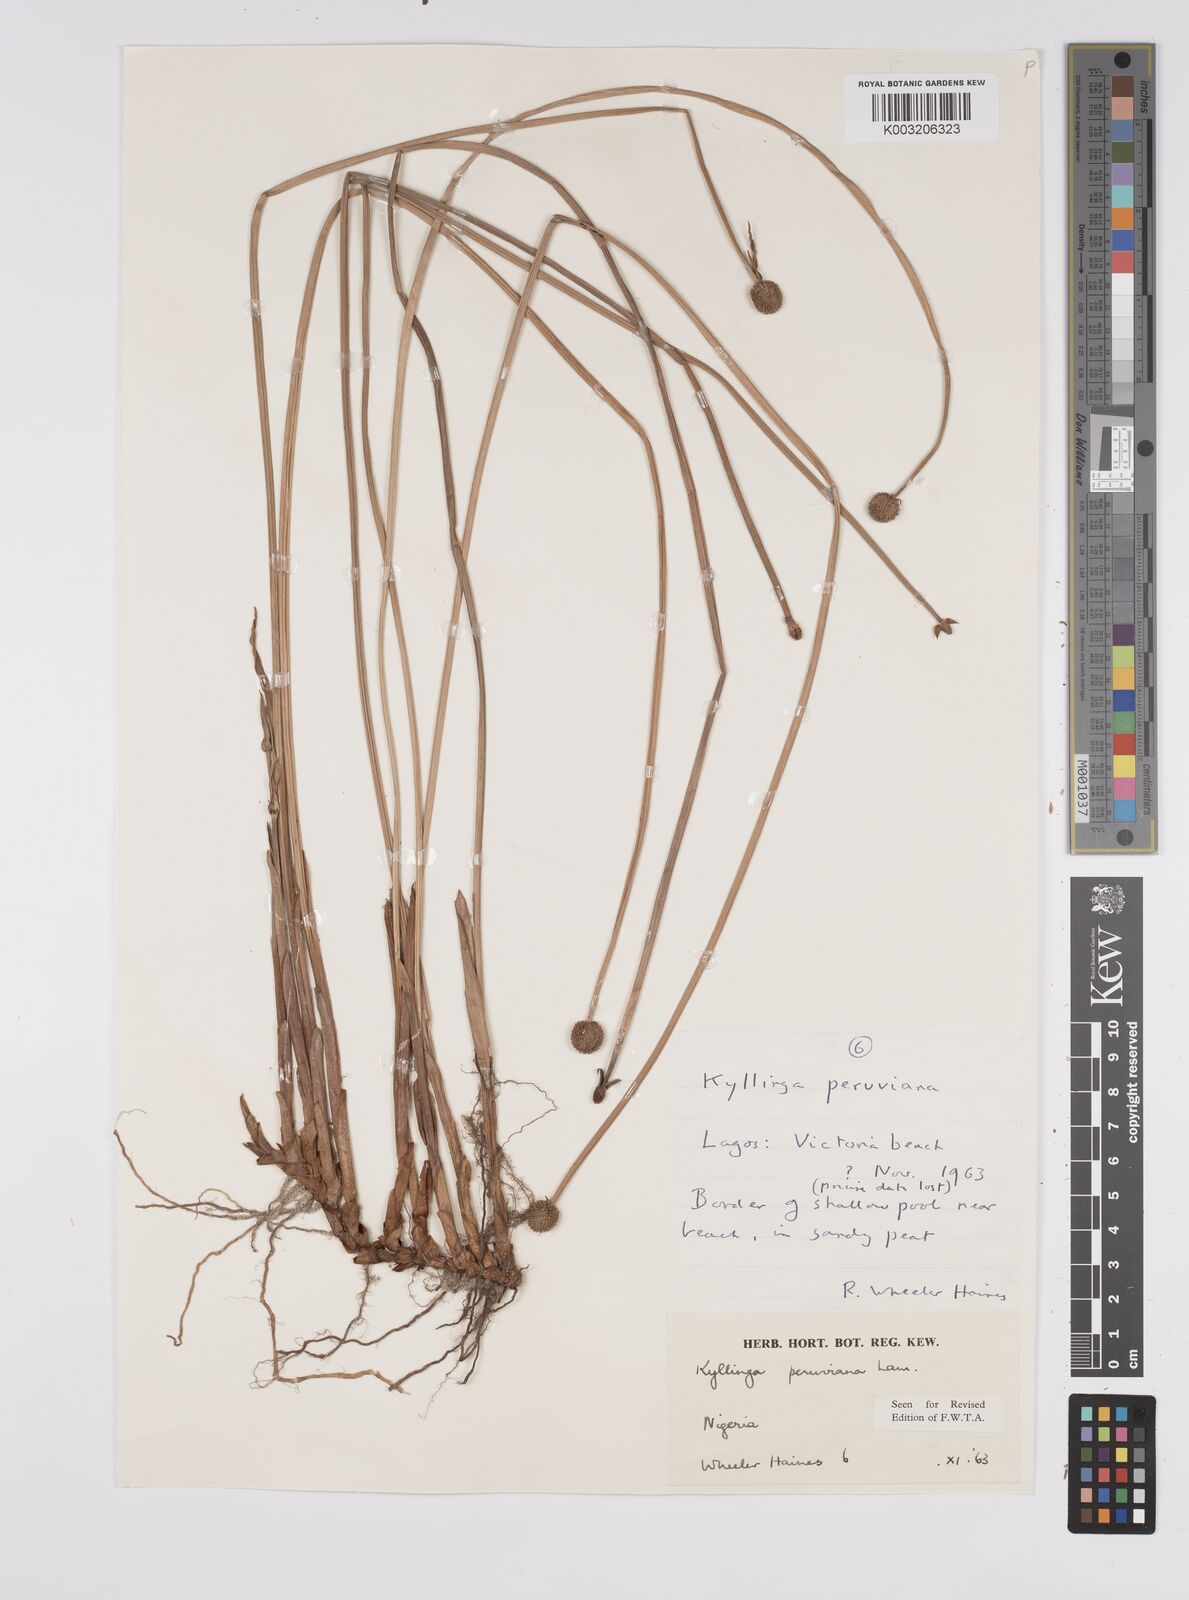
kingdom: Plantae
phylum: Tracheophyta
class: Liliopsida
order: Poales
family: Cyperaceae
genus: Cyperus
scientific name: Cyperus
